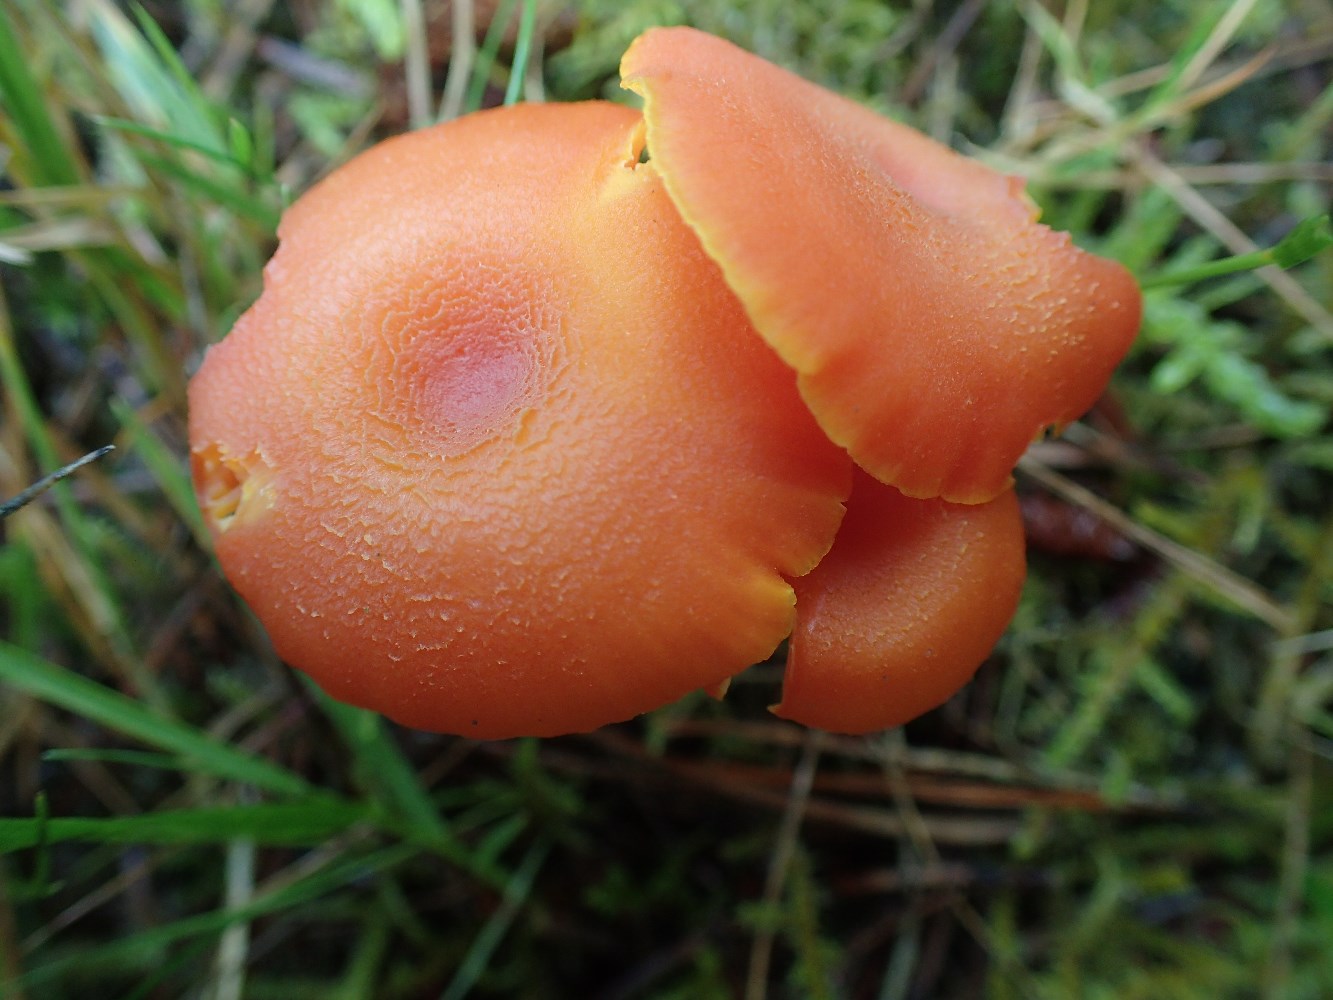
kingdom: Fungi
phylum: Basidiomycota
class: Agaricomycetes
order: Agaricales
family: Hygrophoraceae
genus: Hygrocybe
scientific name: Hygrocybe miniata
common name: mønje-vokshat
